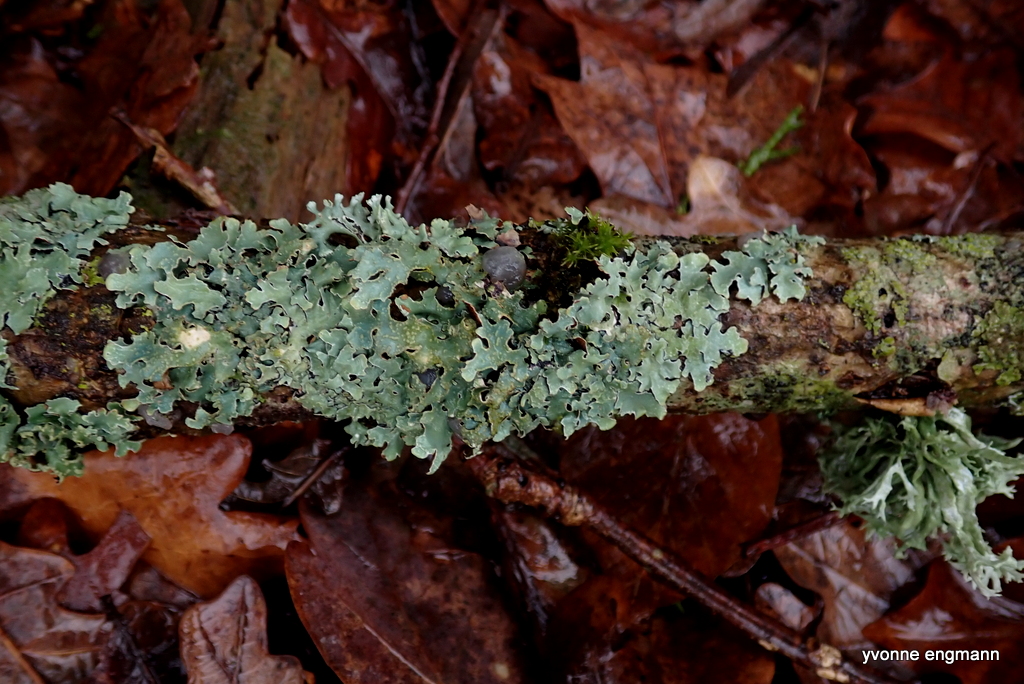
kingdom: Fungi
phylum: Ascomycota
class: Lecanoromycetes
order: Lecanorales
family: Parmeliaceae
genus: Parmelia
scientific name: Parmelia sulcata
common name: rynket skållav
